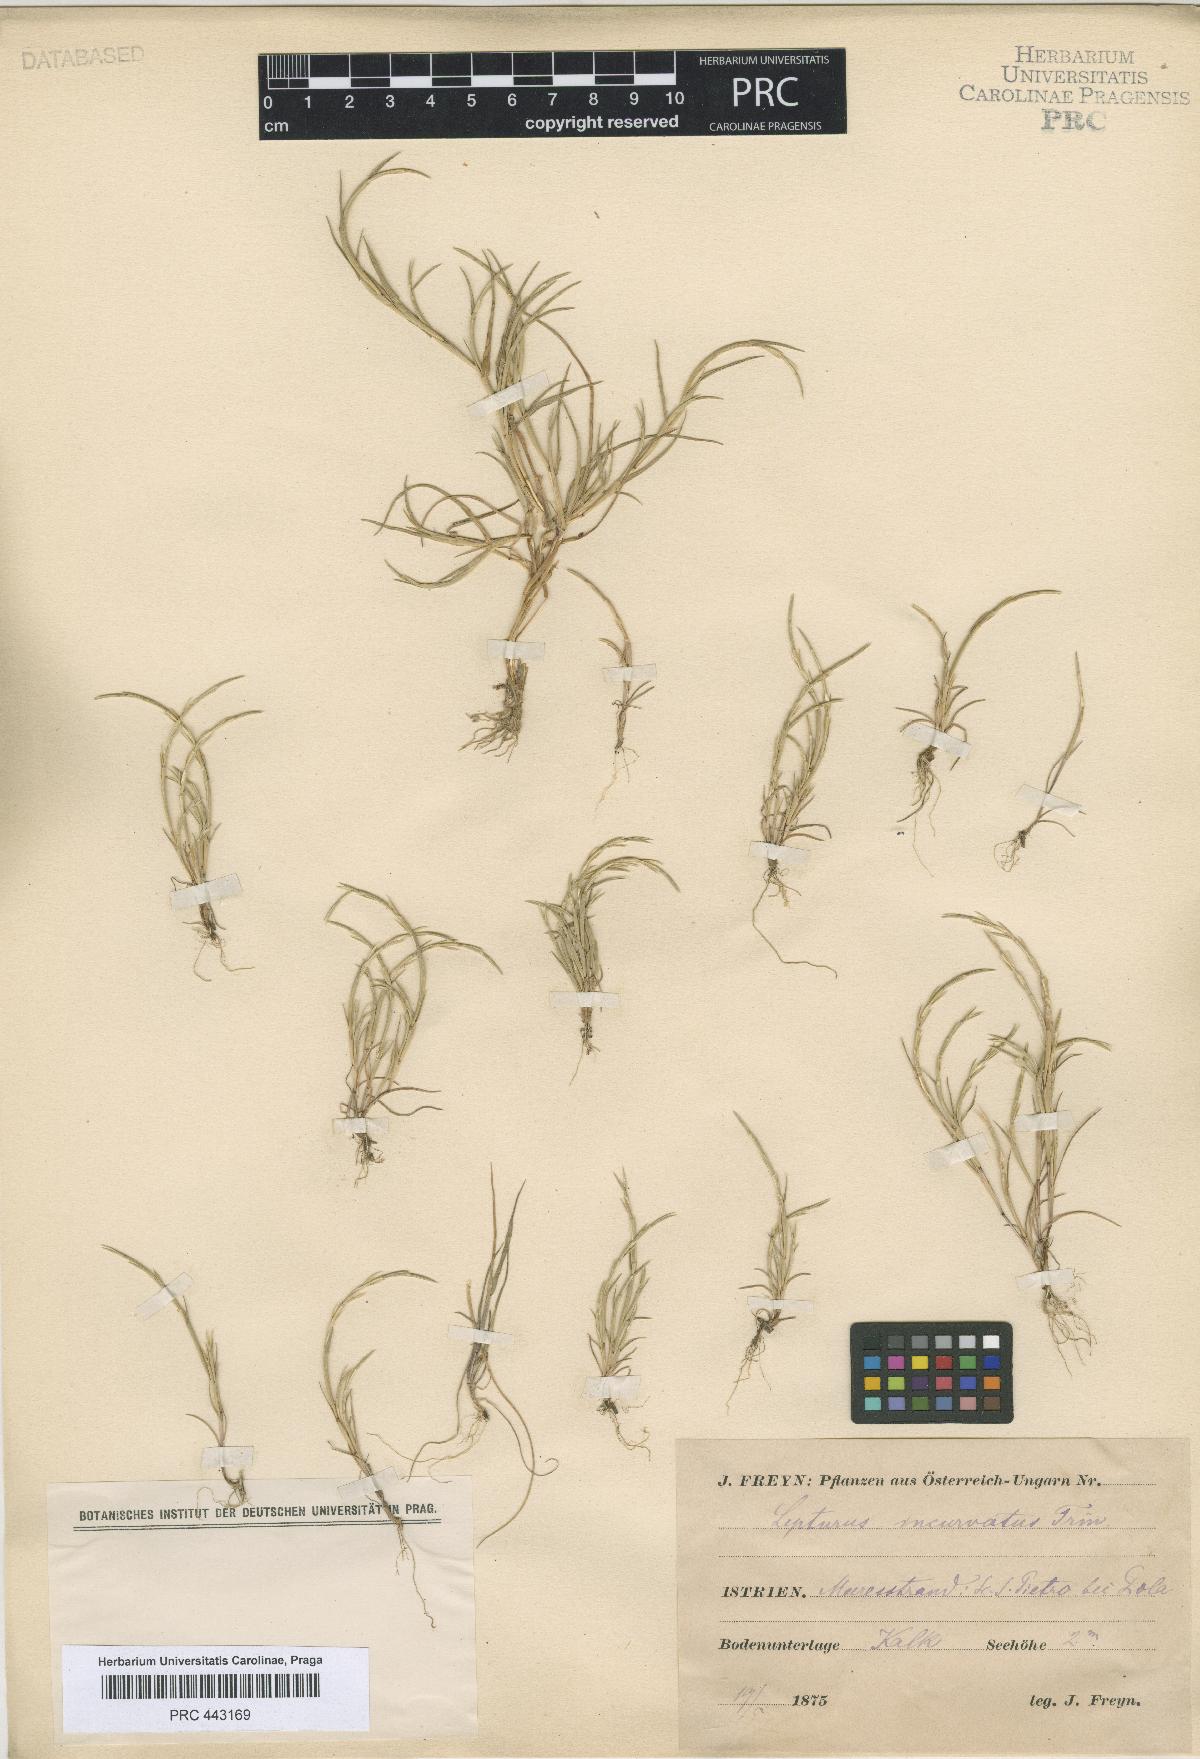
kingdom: Plantae
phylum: Tracheophyta
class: Liliopsida
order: Poales
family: Poaceae
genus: Parapholis
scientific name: Parapholis incurva
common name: Curved sicklegrass
